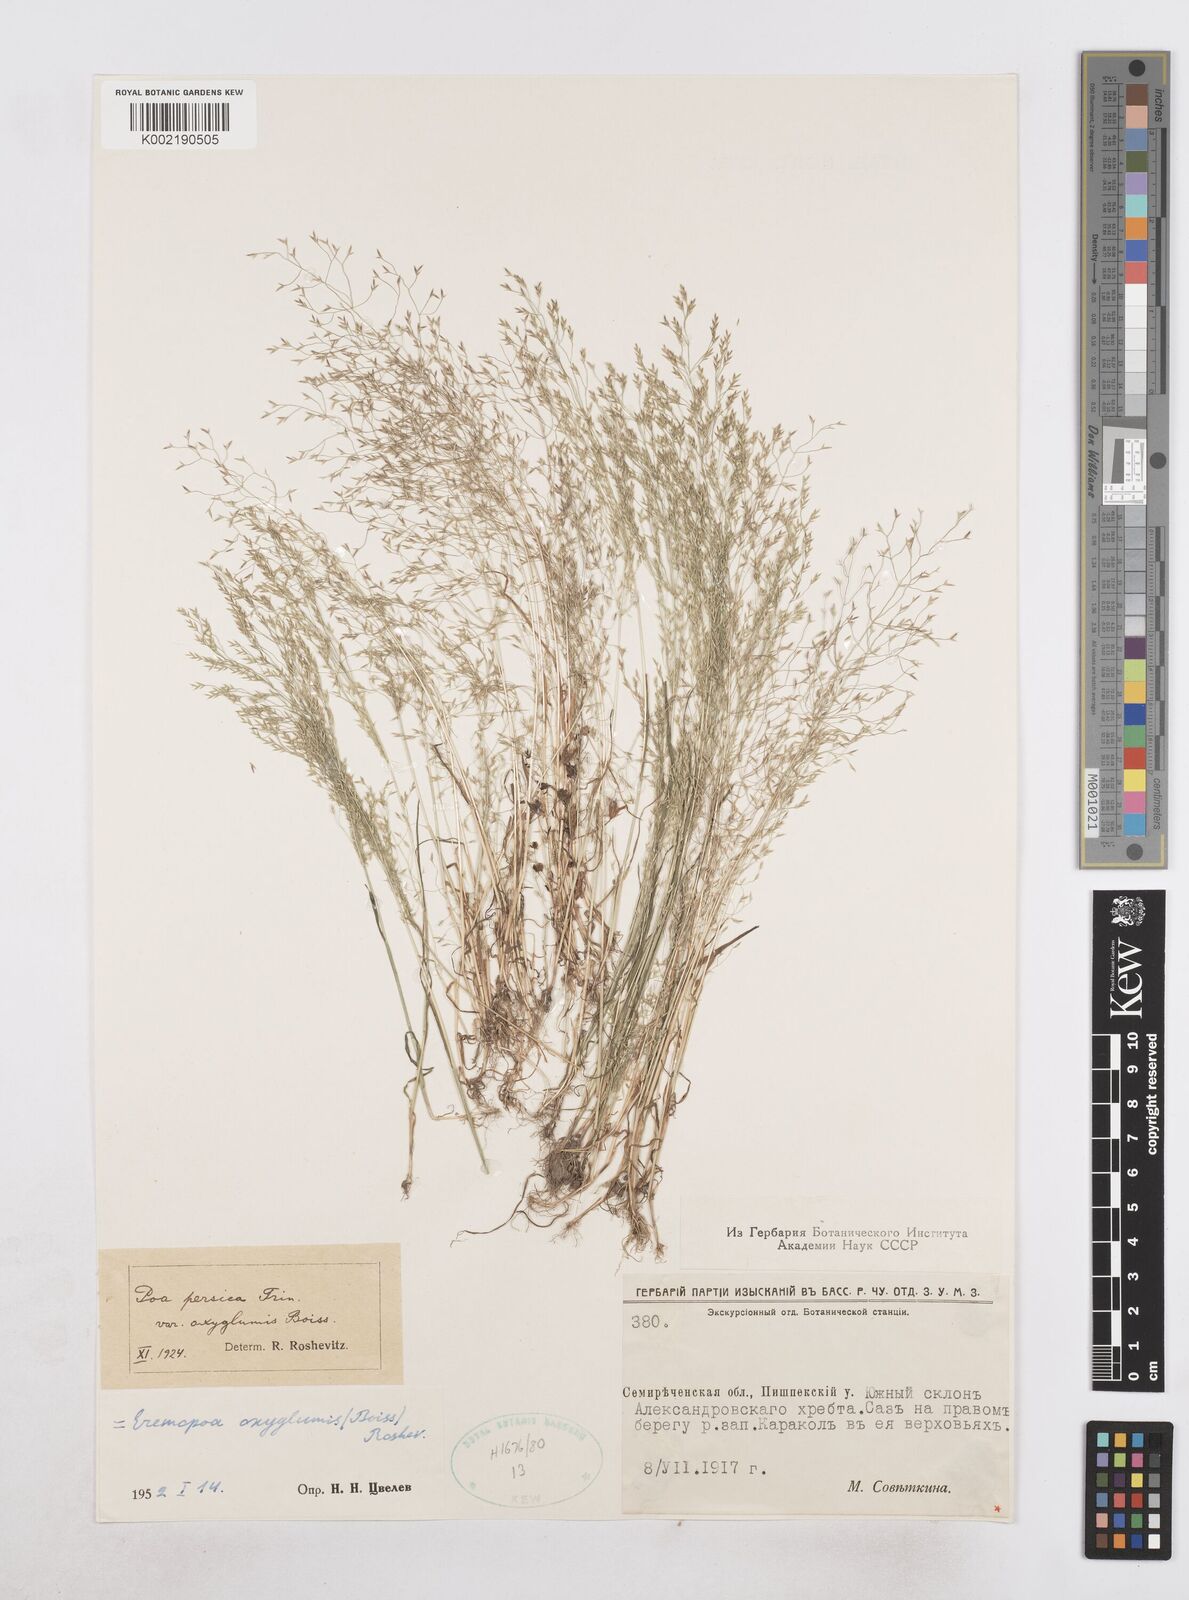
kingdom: Plantae
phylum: Tracheophyta
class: Liliopsida
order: Poales
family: Poaceae
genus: Poa
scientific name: Poa diaphora
